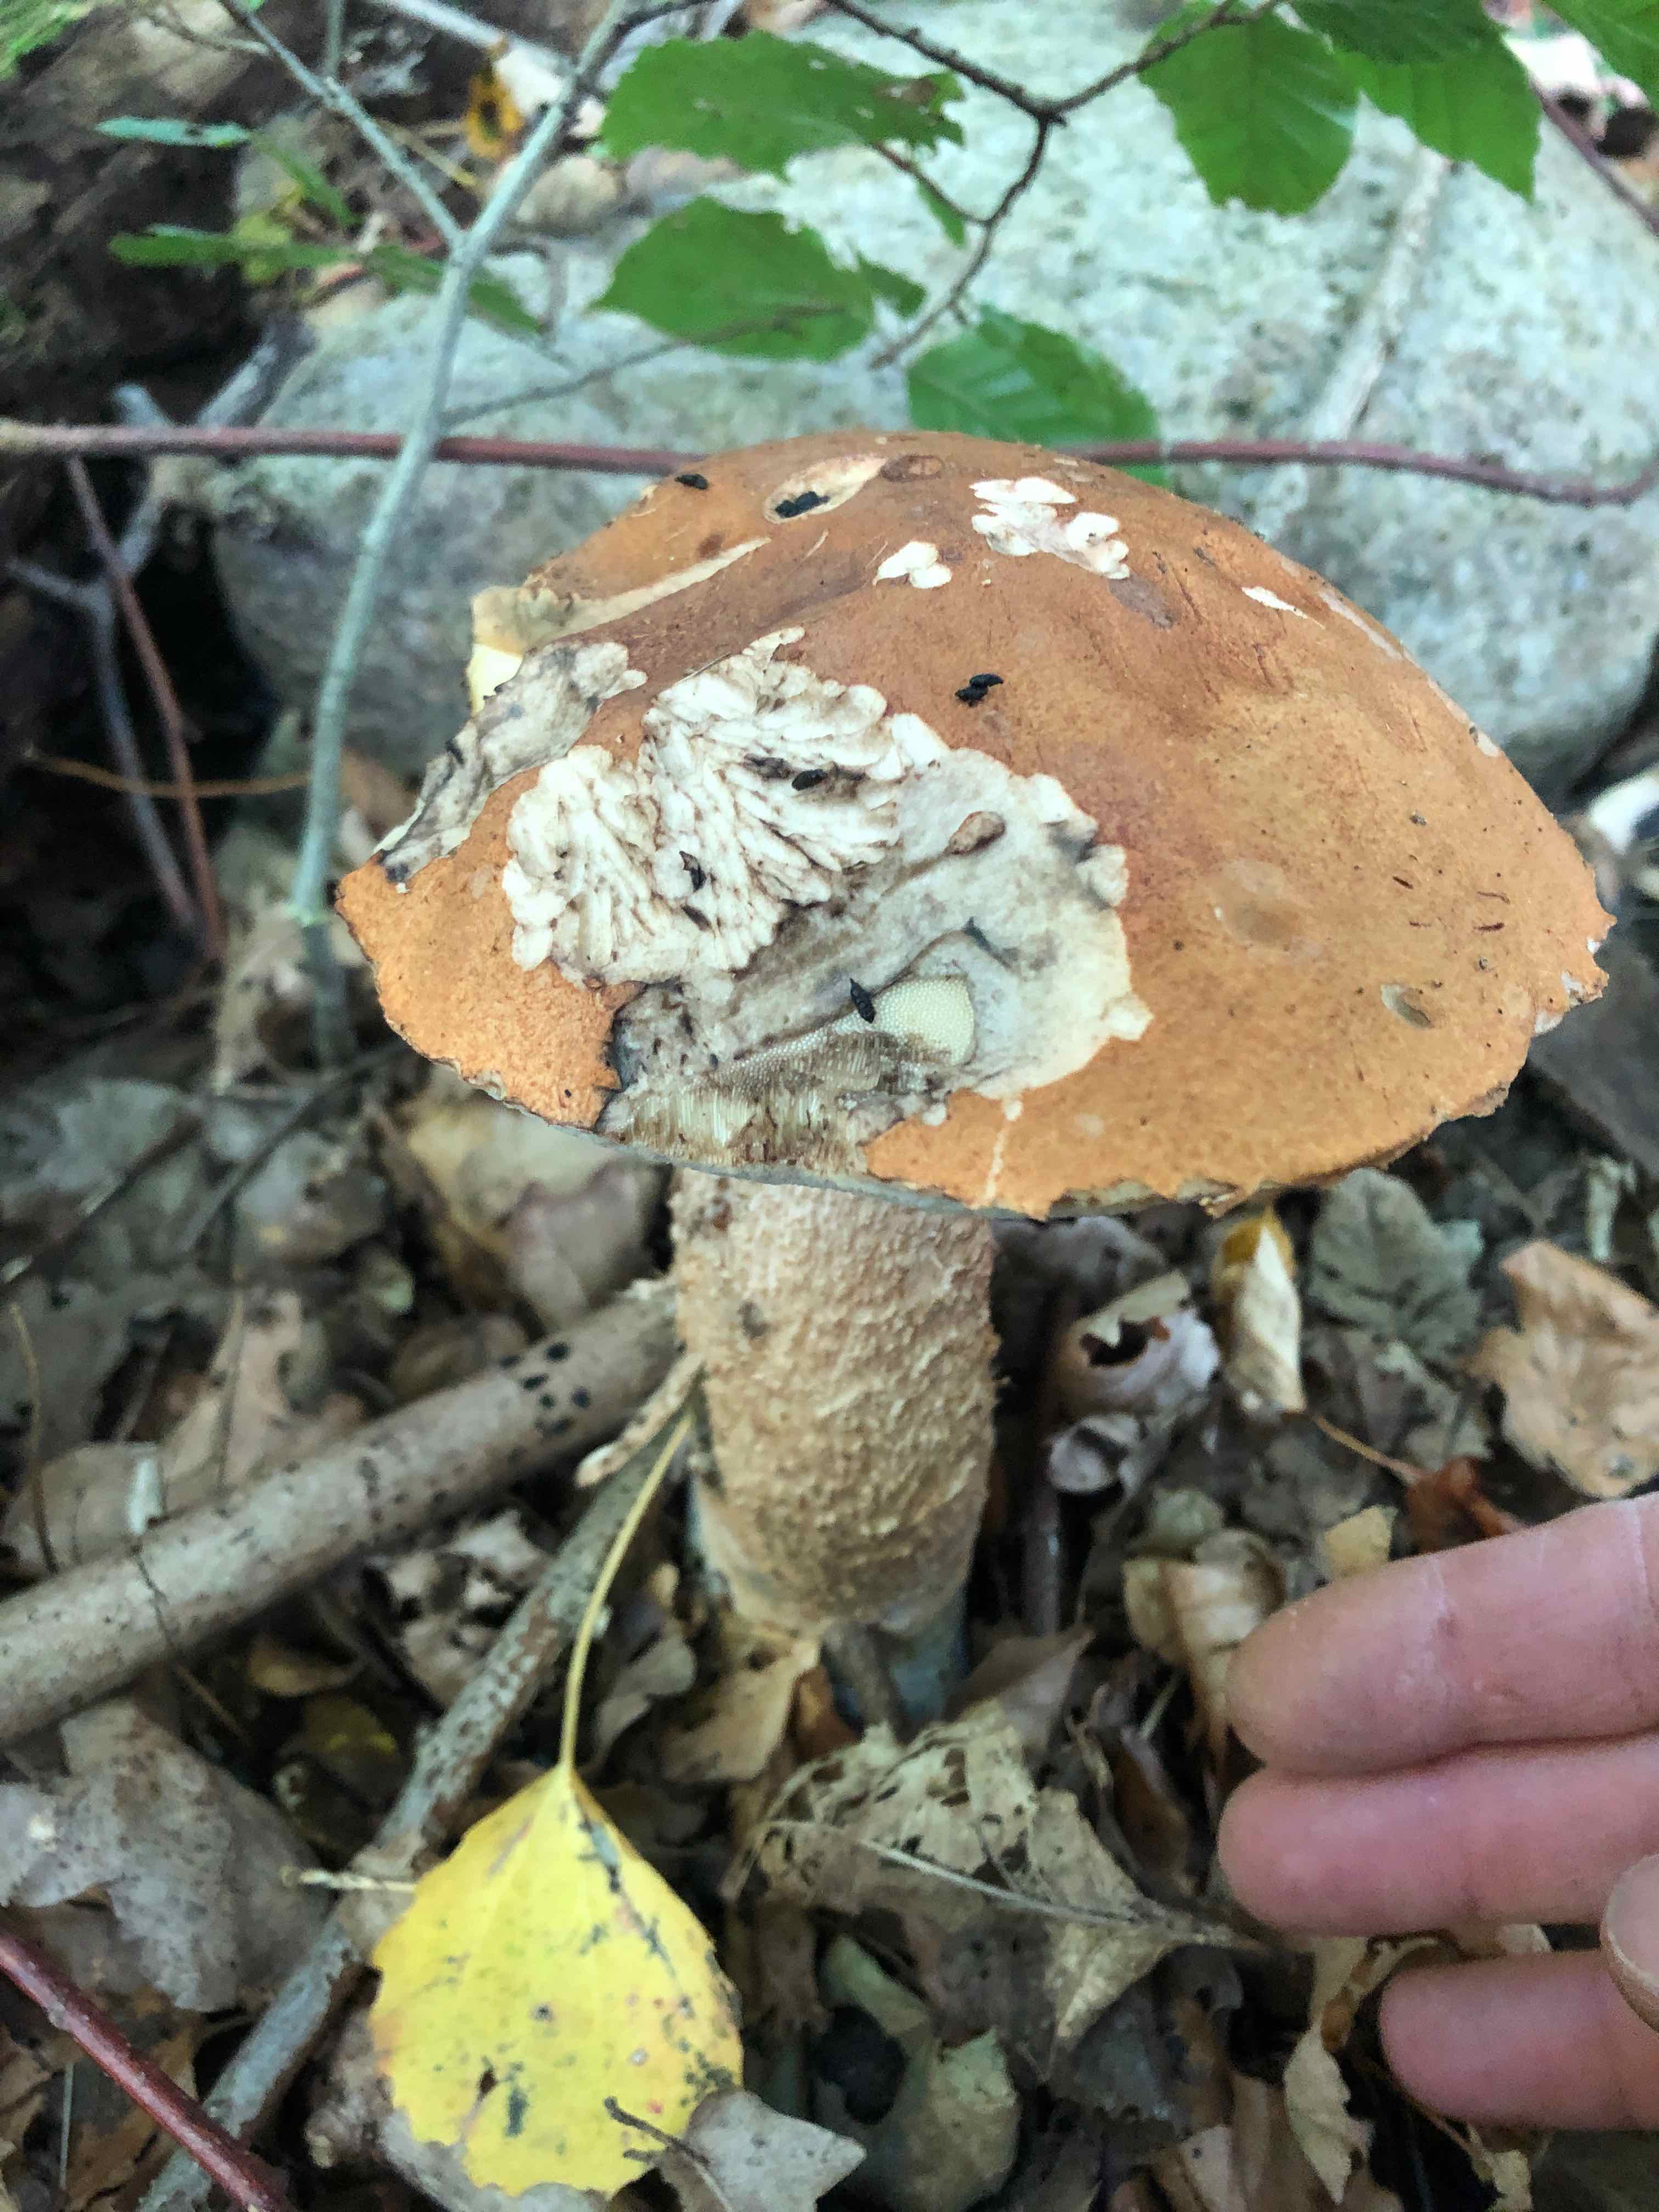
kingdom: Fungi
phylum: Basidiomycota
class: Agaricomycetes
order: Boletales
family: Boletaceae
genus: Leccinum
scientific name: Leccinum
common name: skælrørhat
